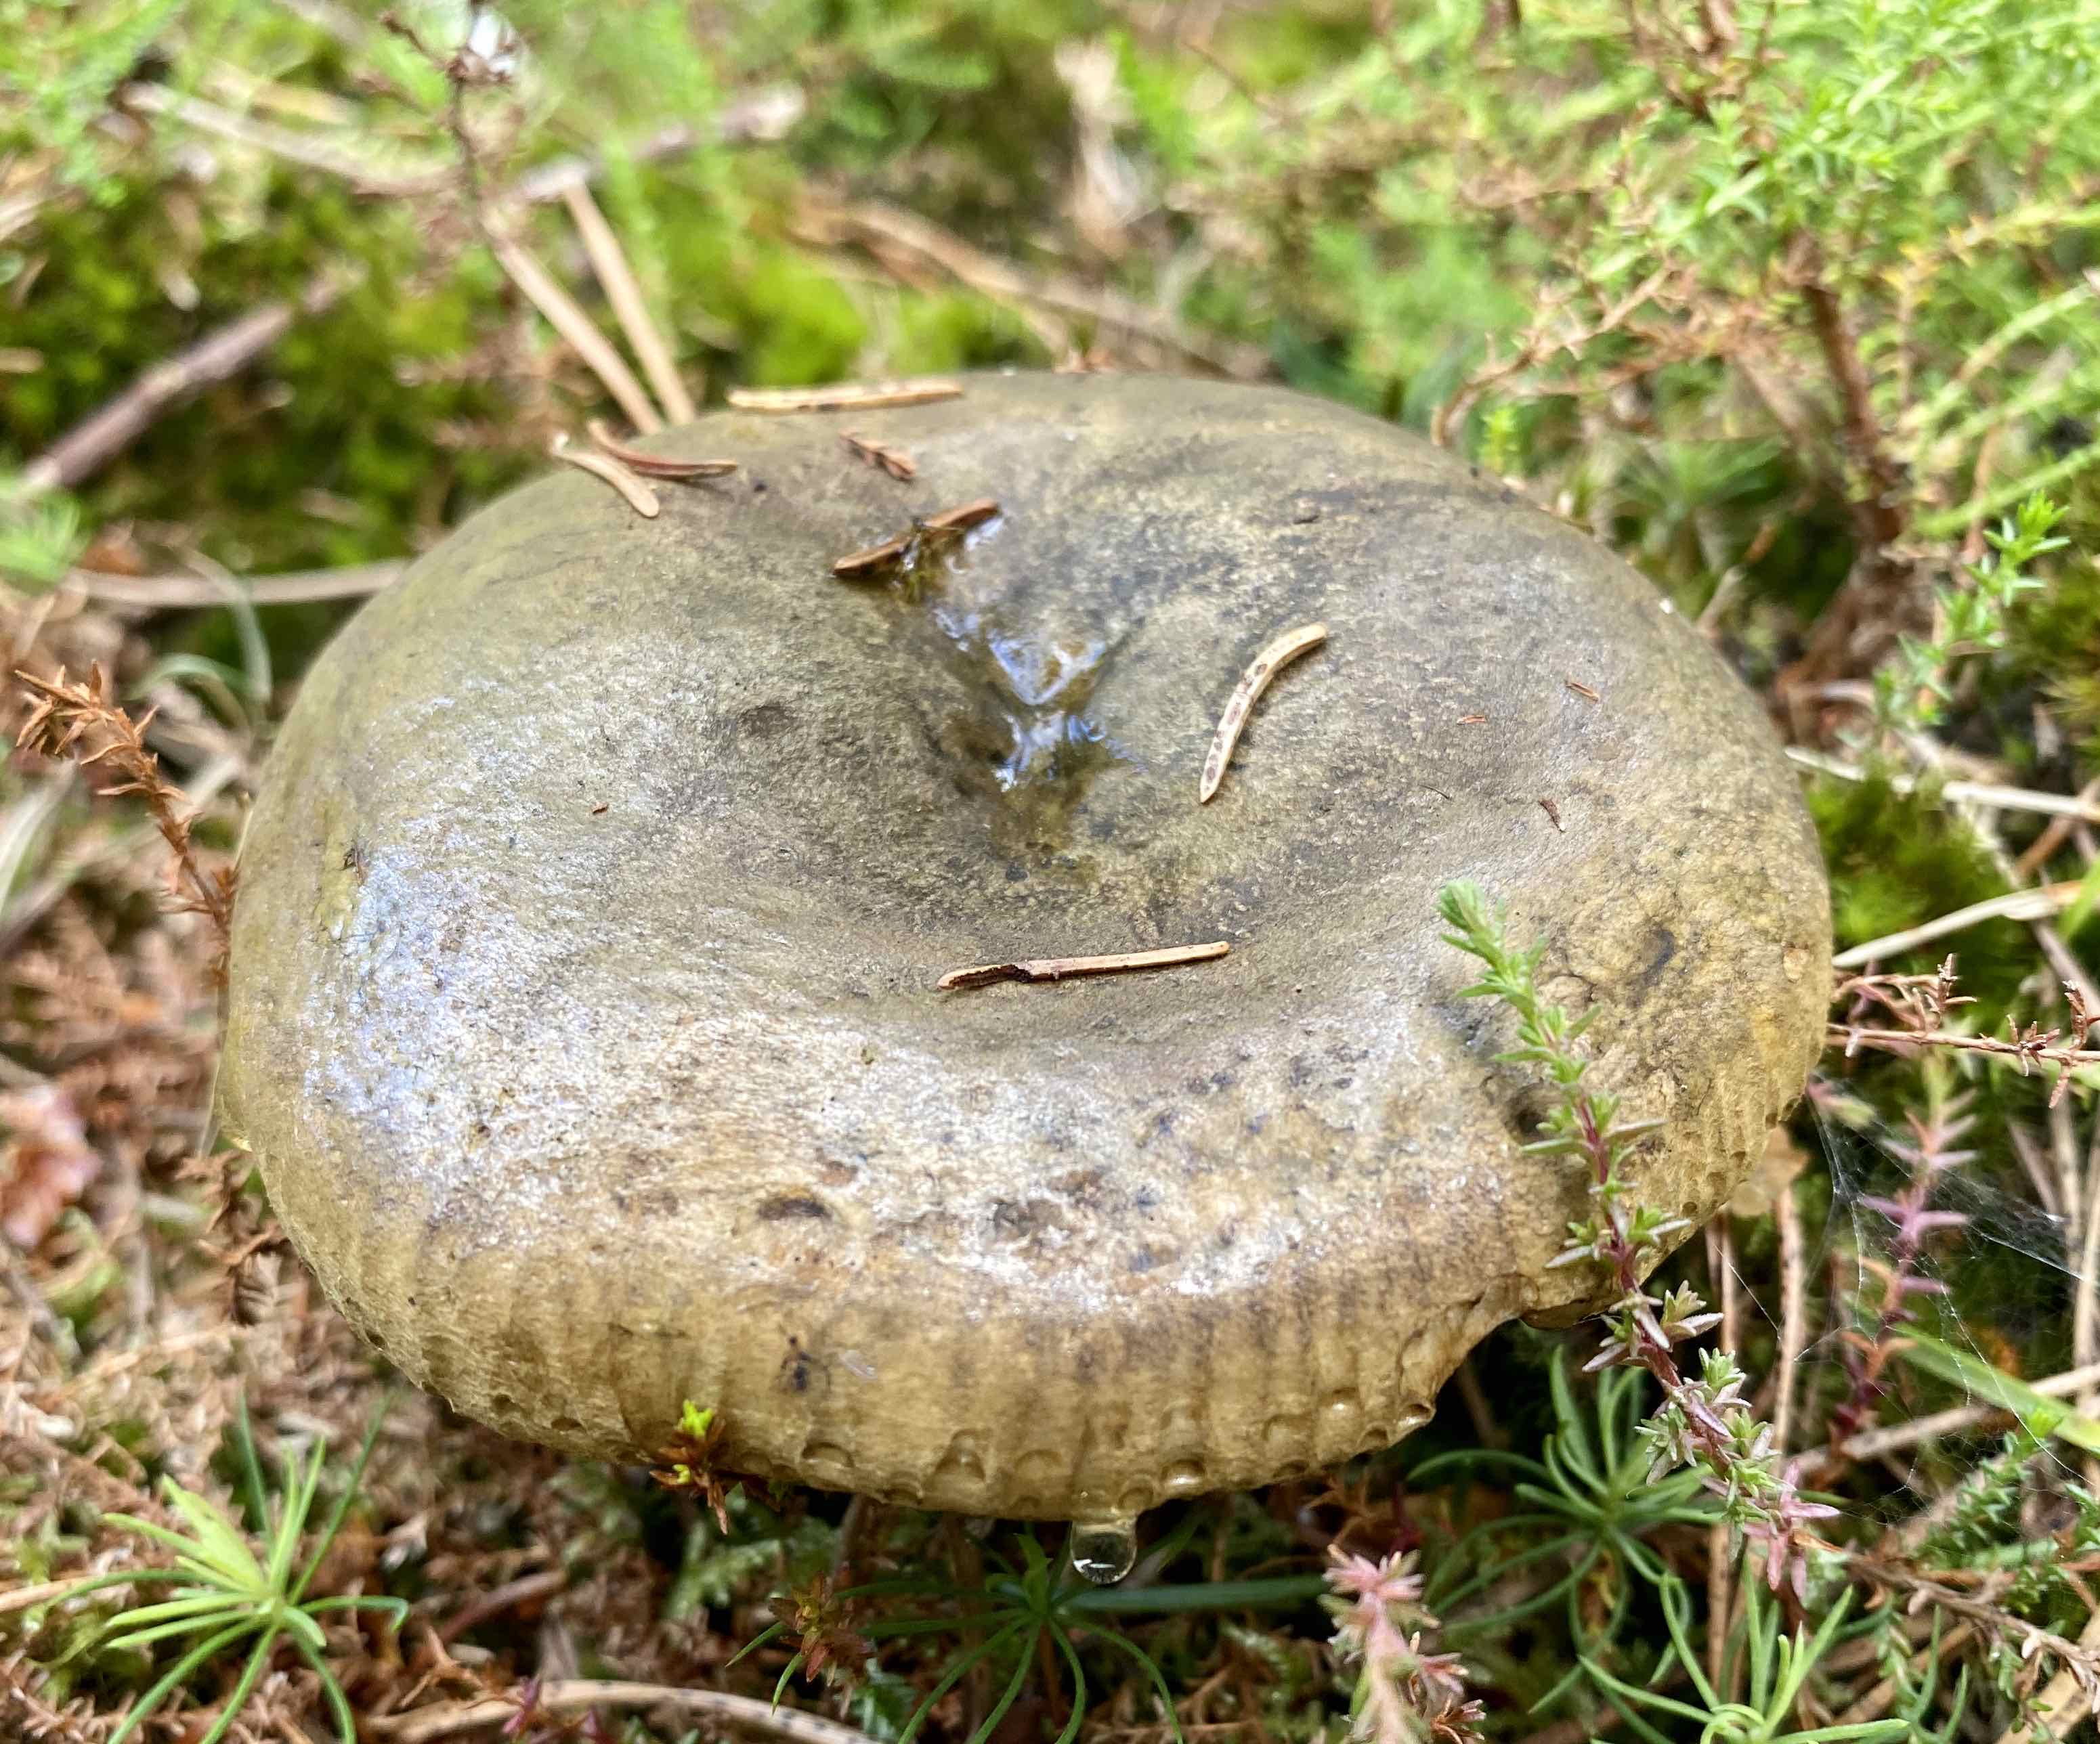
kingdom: Fungi
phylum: Basidiomycota
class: Agaricomycetes
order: Russulales
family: Russulaceae
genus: Lactarius
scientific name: Lactarius necator
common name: manddraber-mælkehat
